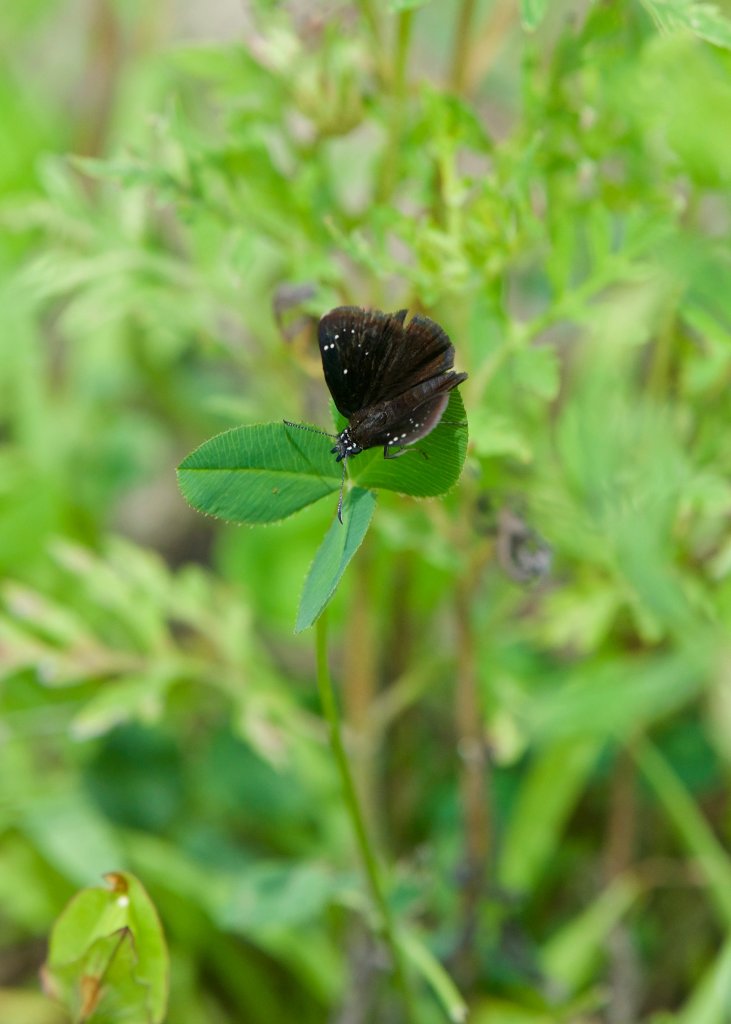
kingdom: Animalia
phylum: Arthropoda
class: Insecta
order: Lepidoptera
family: Hesperiidae
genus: Pholisora
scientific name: Pholisora catullus
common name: Common Sootywing
